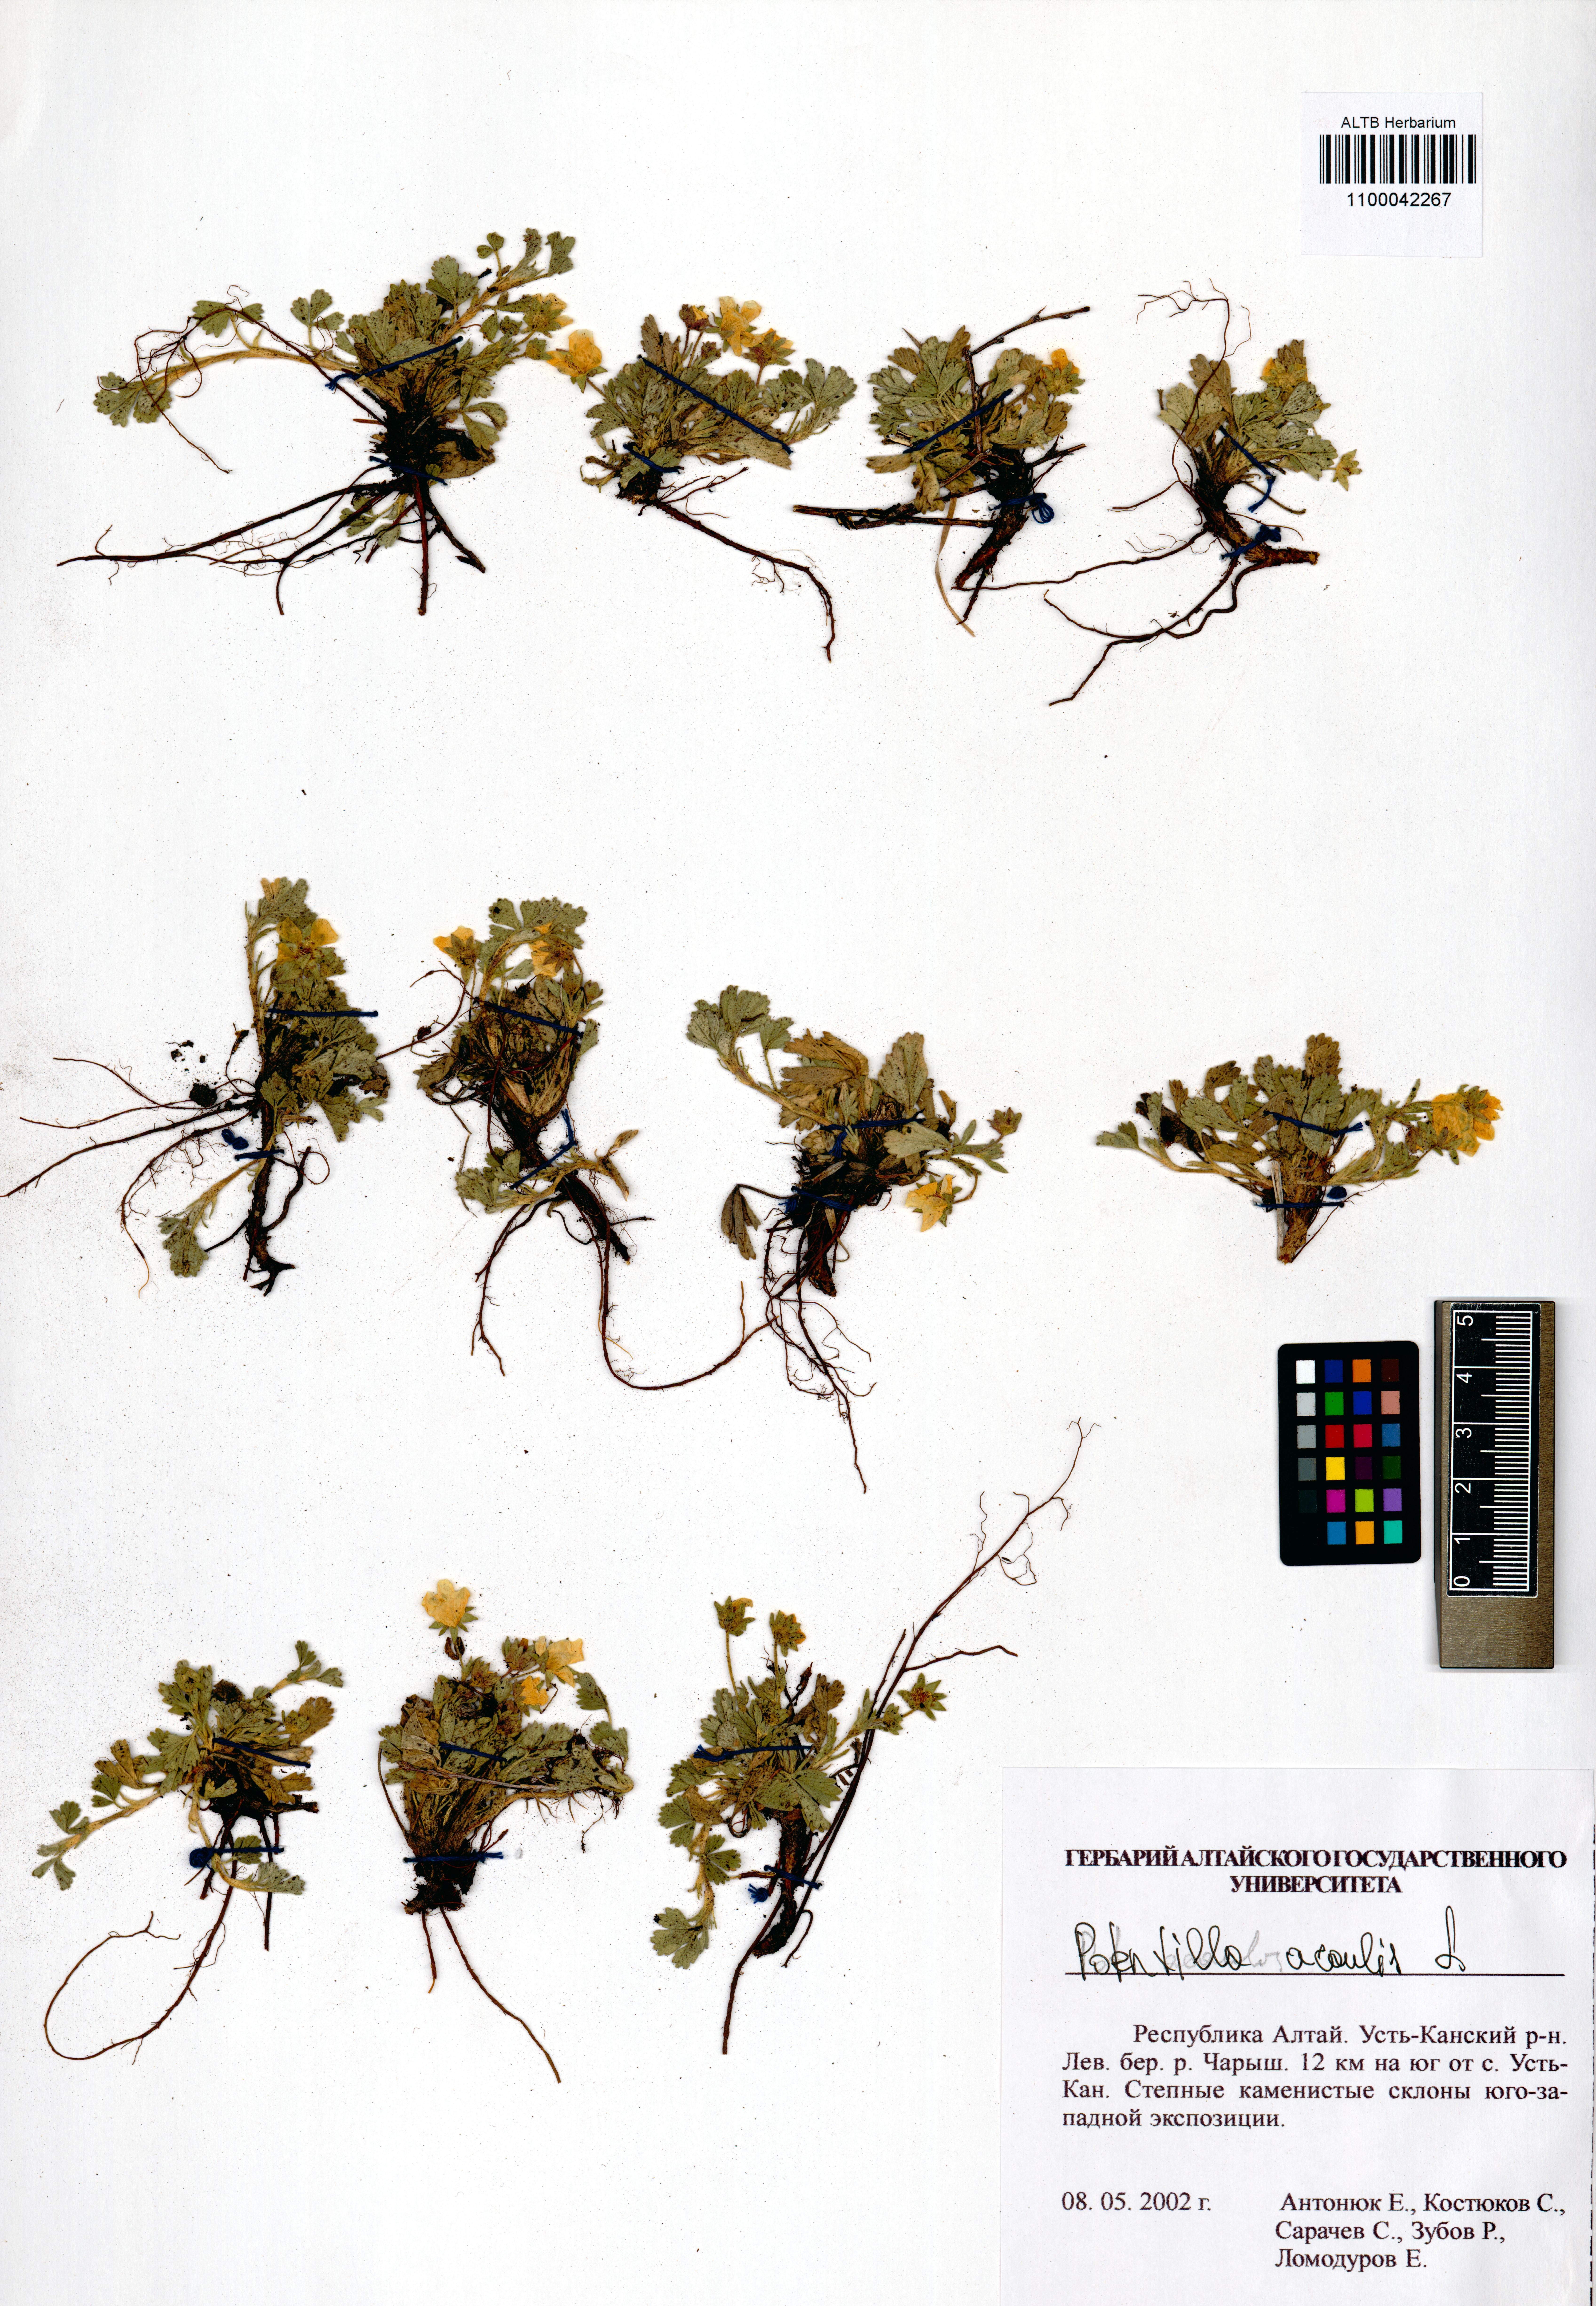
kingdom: Plantae
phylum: Tracheophyta
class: Magnoliopsida
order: Rosales
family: Rosaceae
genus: Potentilla
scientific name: Potentilla acaulis
